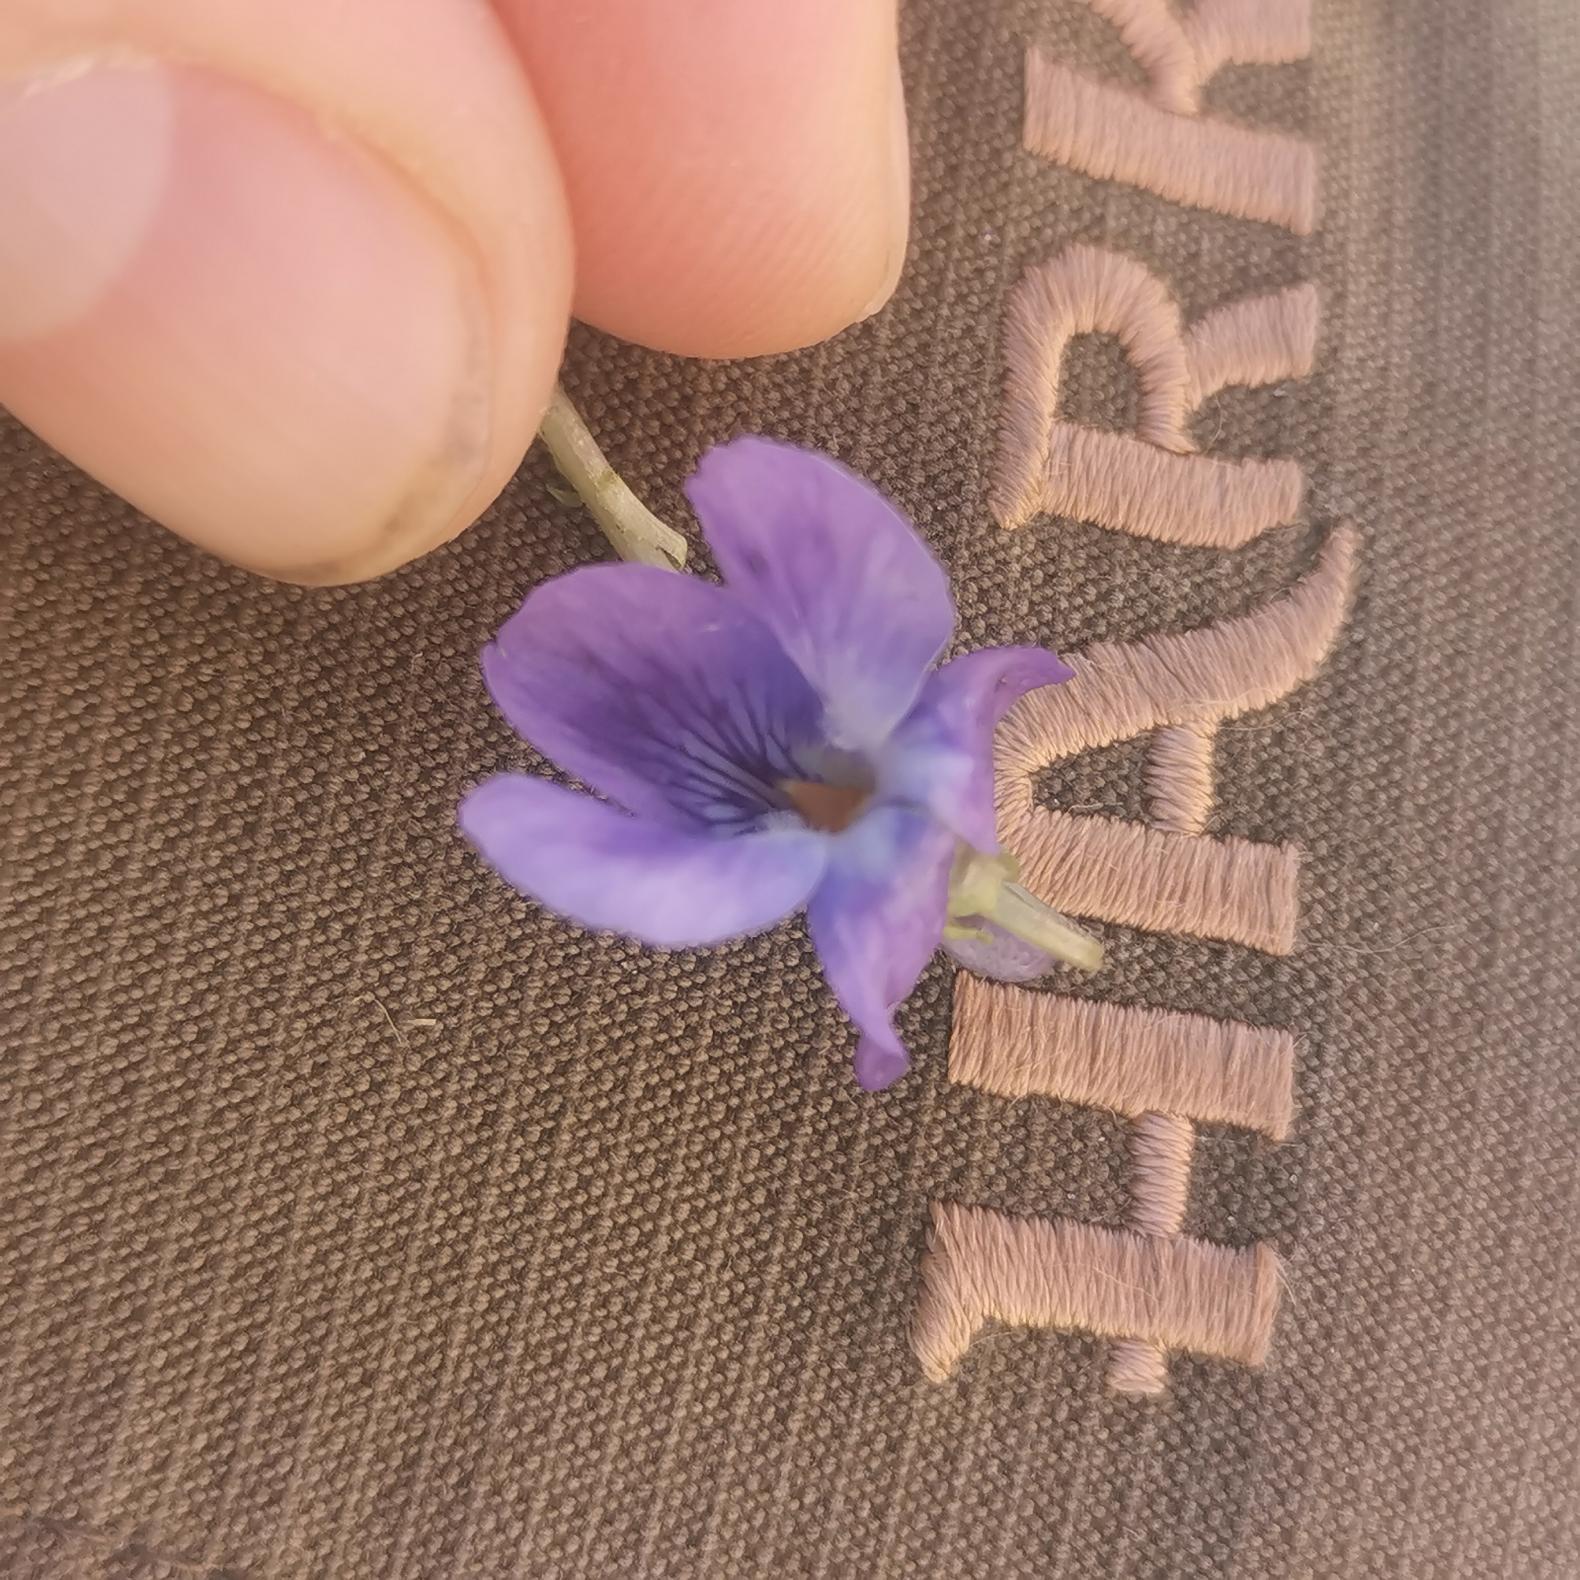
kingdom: Plantae
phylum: Tracheophyta
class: Magnoliopsida
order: Malpighiales
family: Violaceae
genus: Viola
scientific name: Viola odorata
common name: Marts-viol
